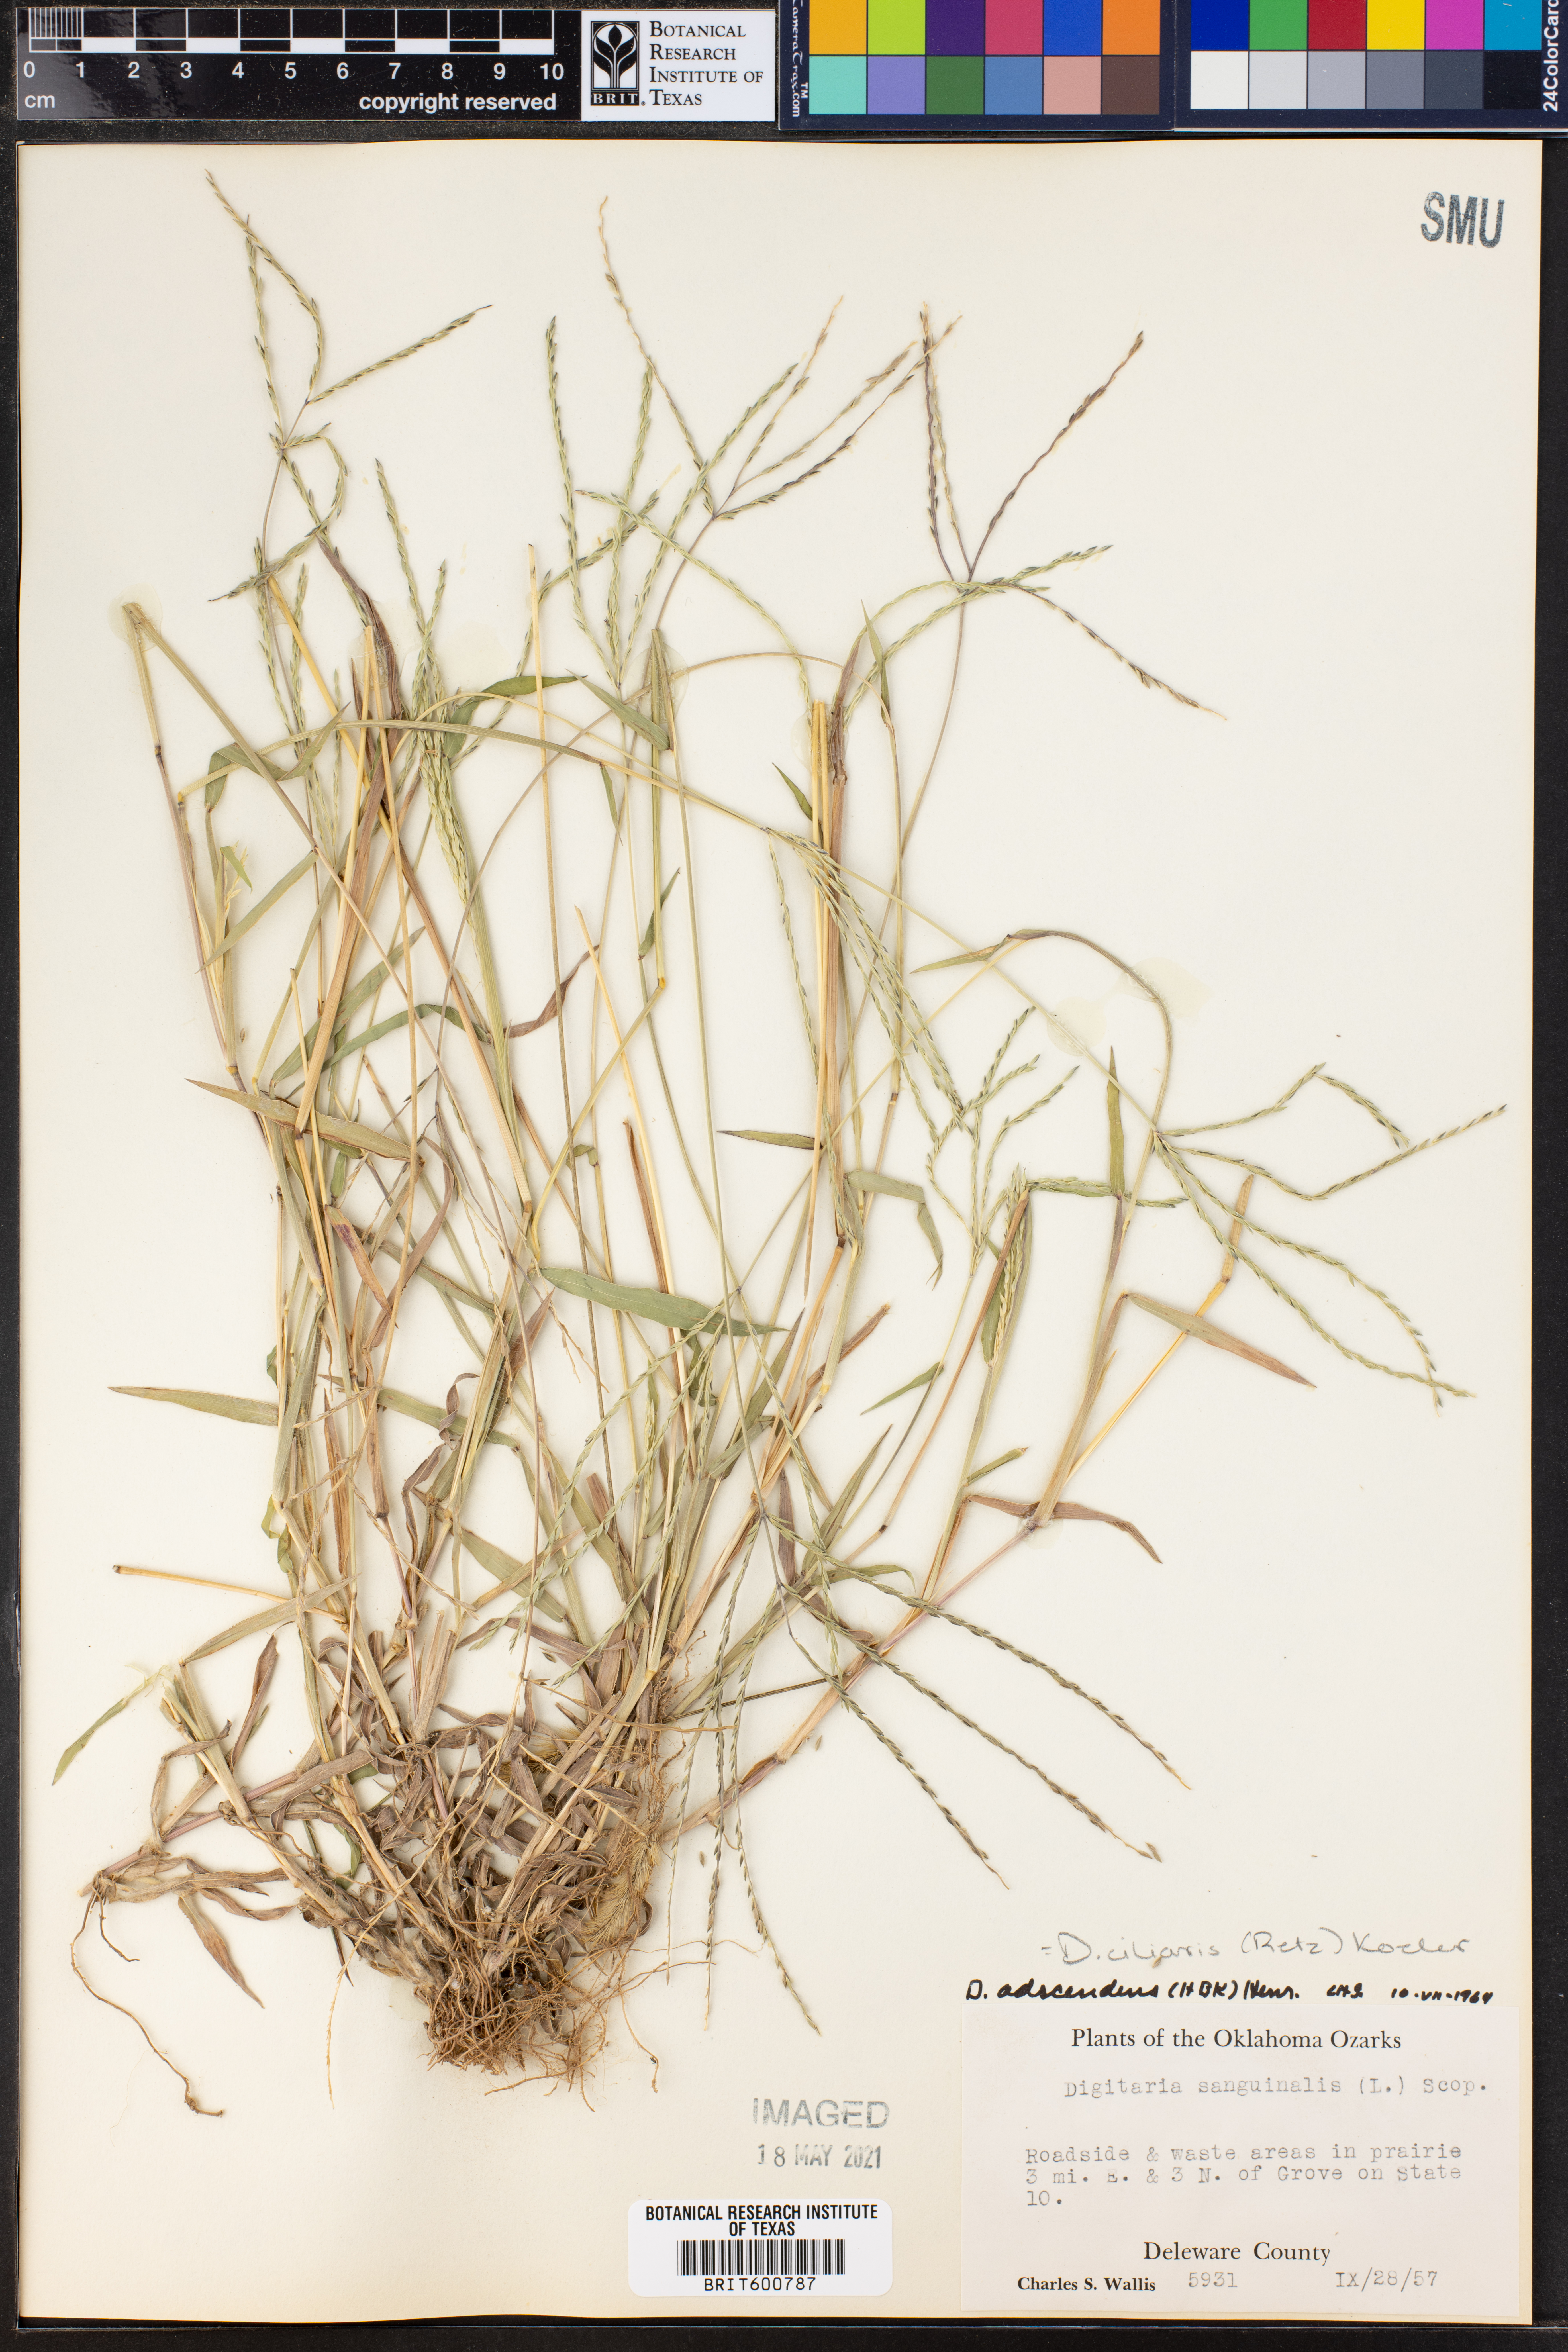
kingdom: Plantae
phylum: Tracheophyta
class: Liliopsida
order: Poales
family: Poaceae
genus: Digitaria
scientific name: Digitaria ciliaris
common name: Tropical finger-grass
